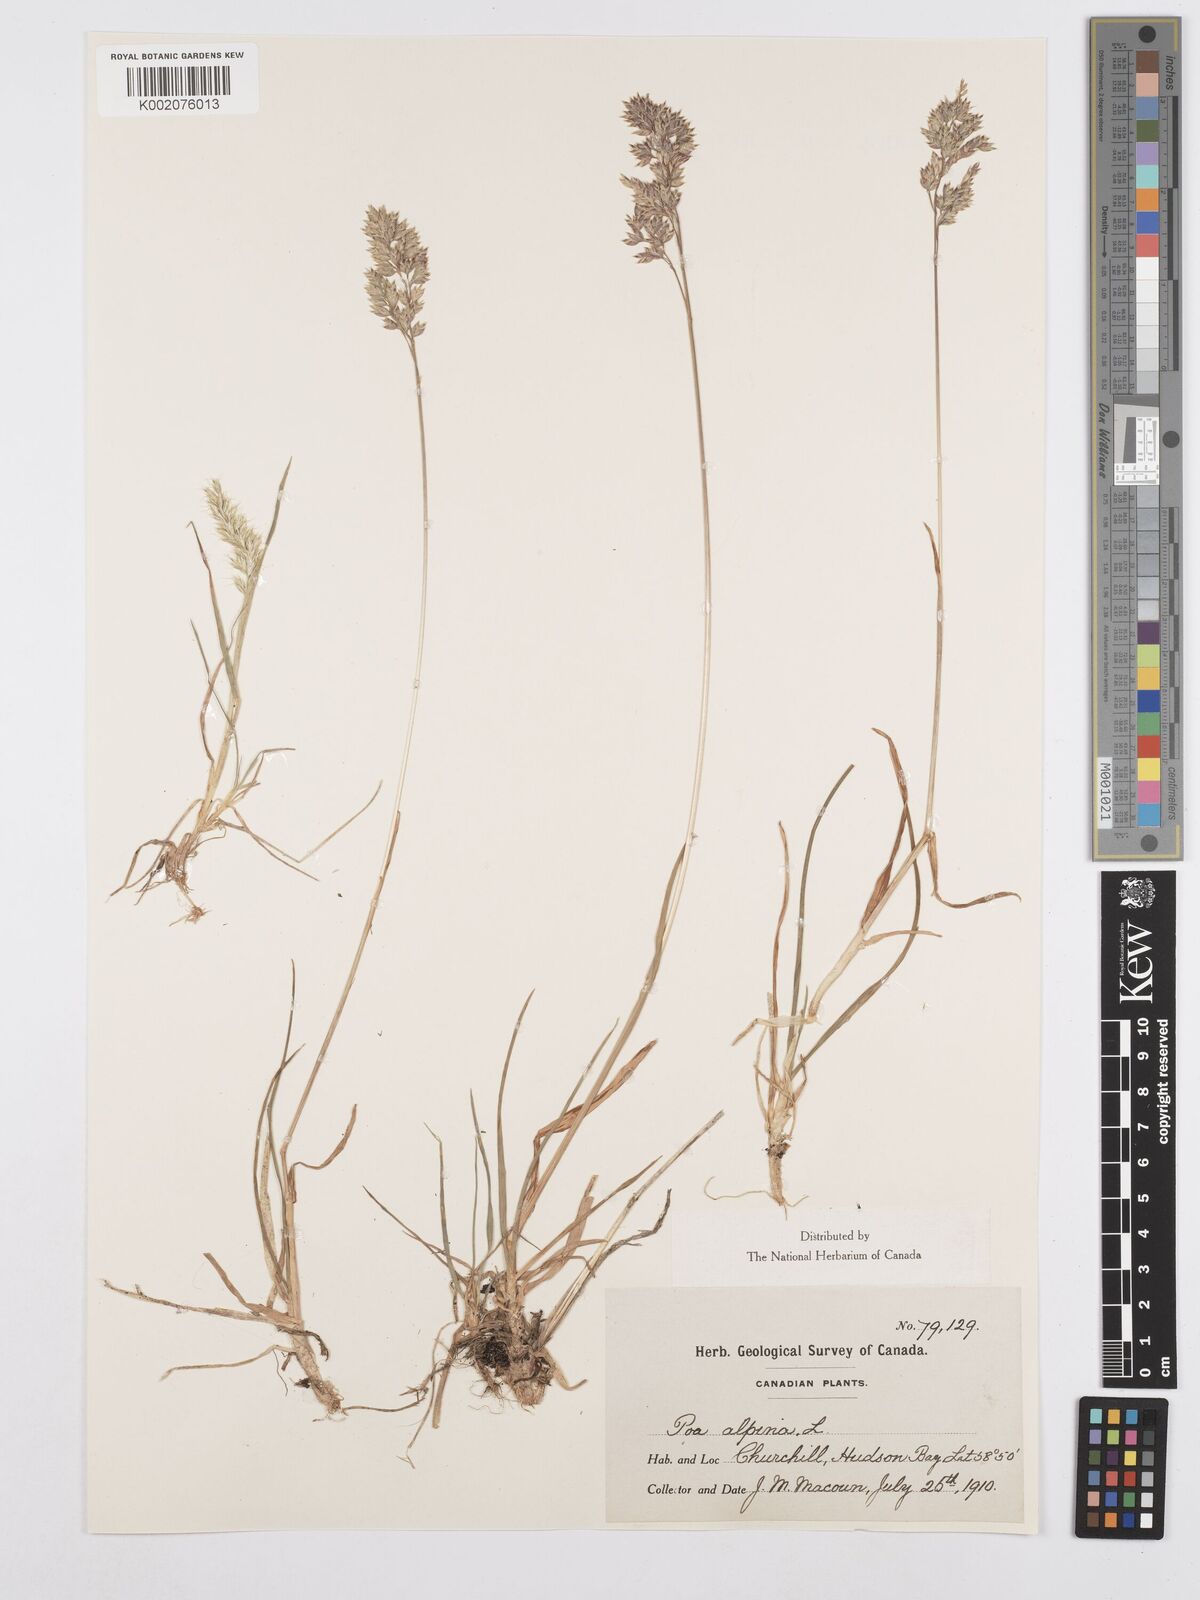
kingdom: Plantae
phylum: Tracheophyta
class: Liliopsida
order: Poales
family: Poaceae
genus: Poa
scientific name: Poa alpina
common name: Alpine bluegrass
